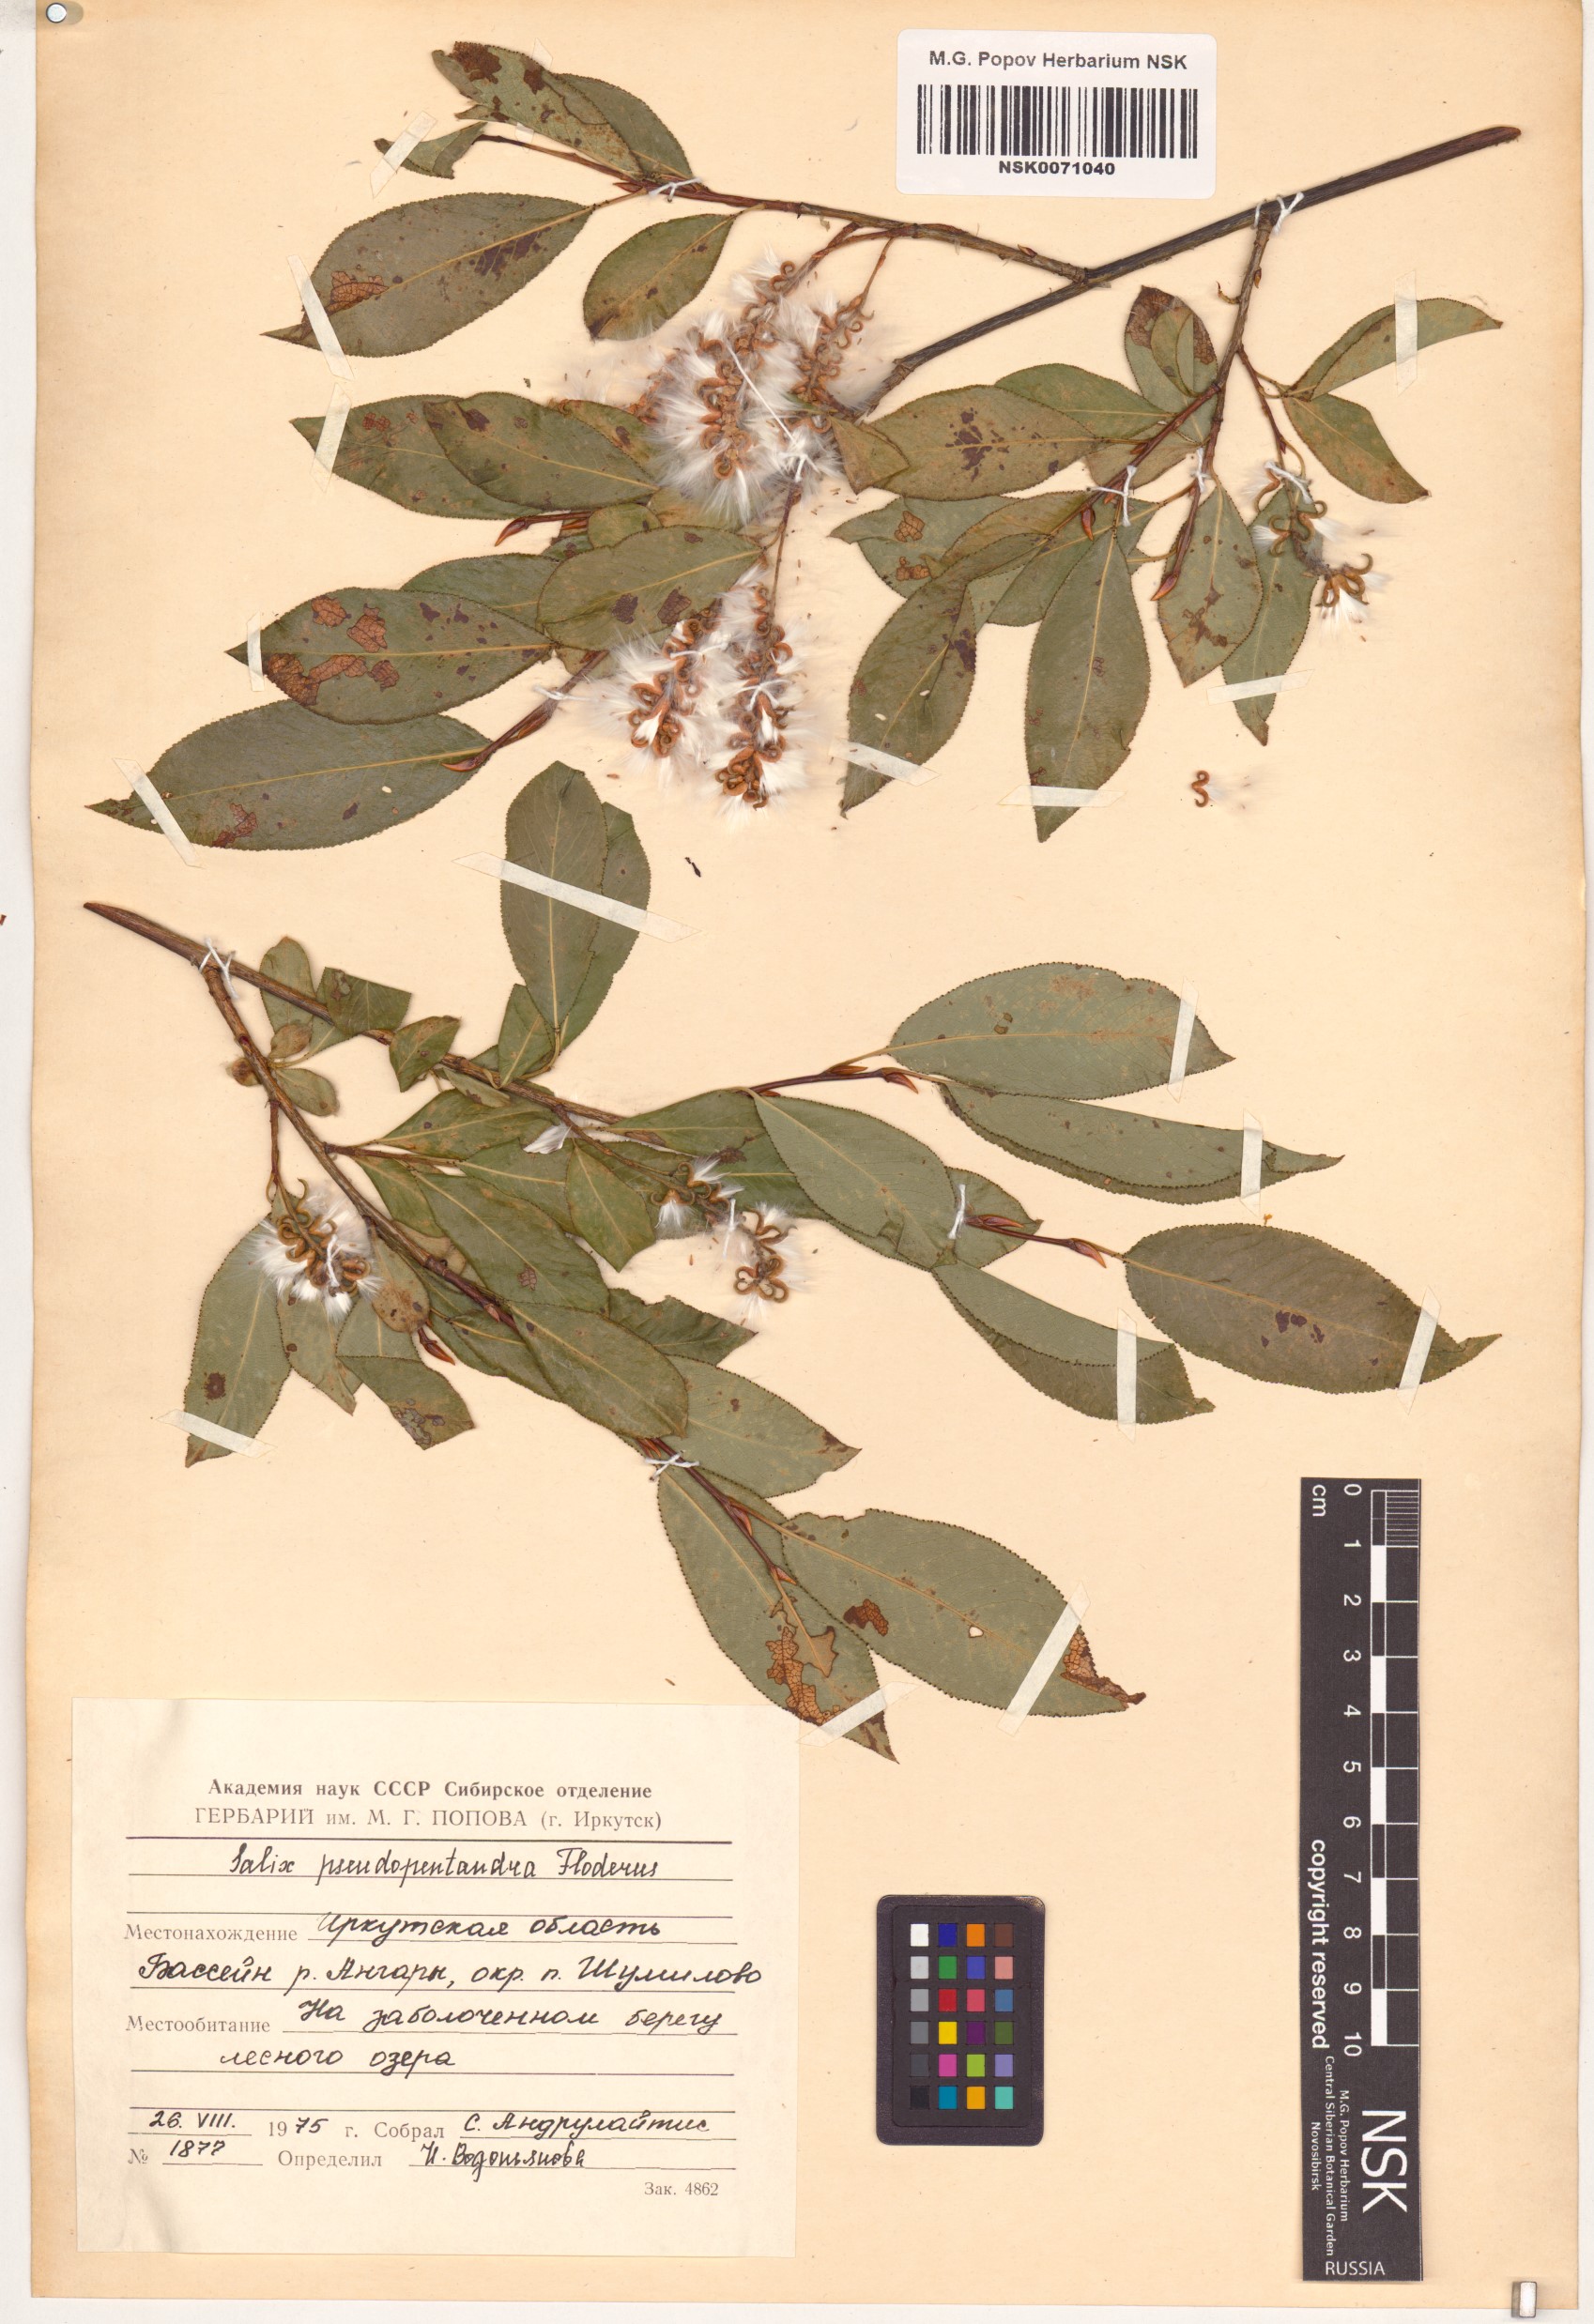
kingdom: Plantae
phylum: Tracheophyta
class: Magnoliopsida
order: Malpighiales
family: Salicaceae
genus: Salix
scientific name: Salix pseudopentandra
